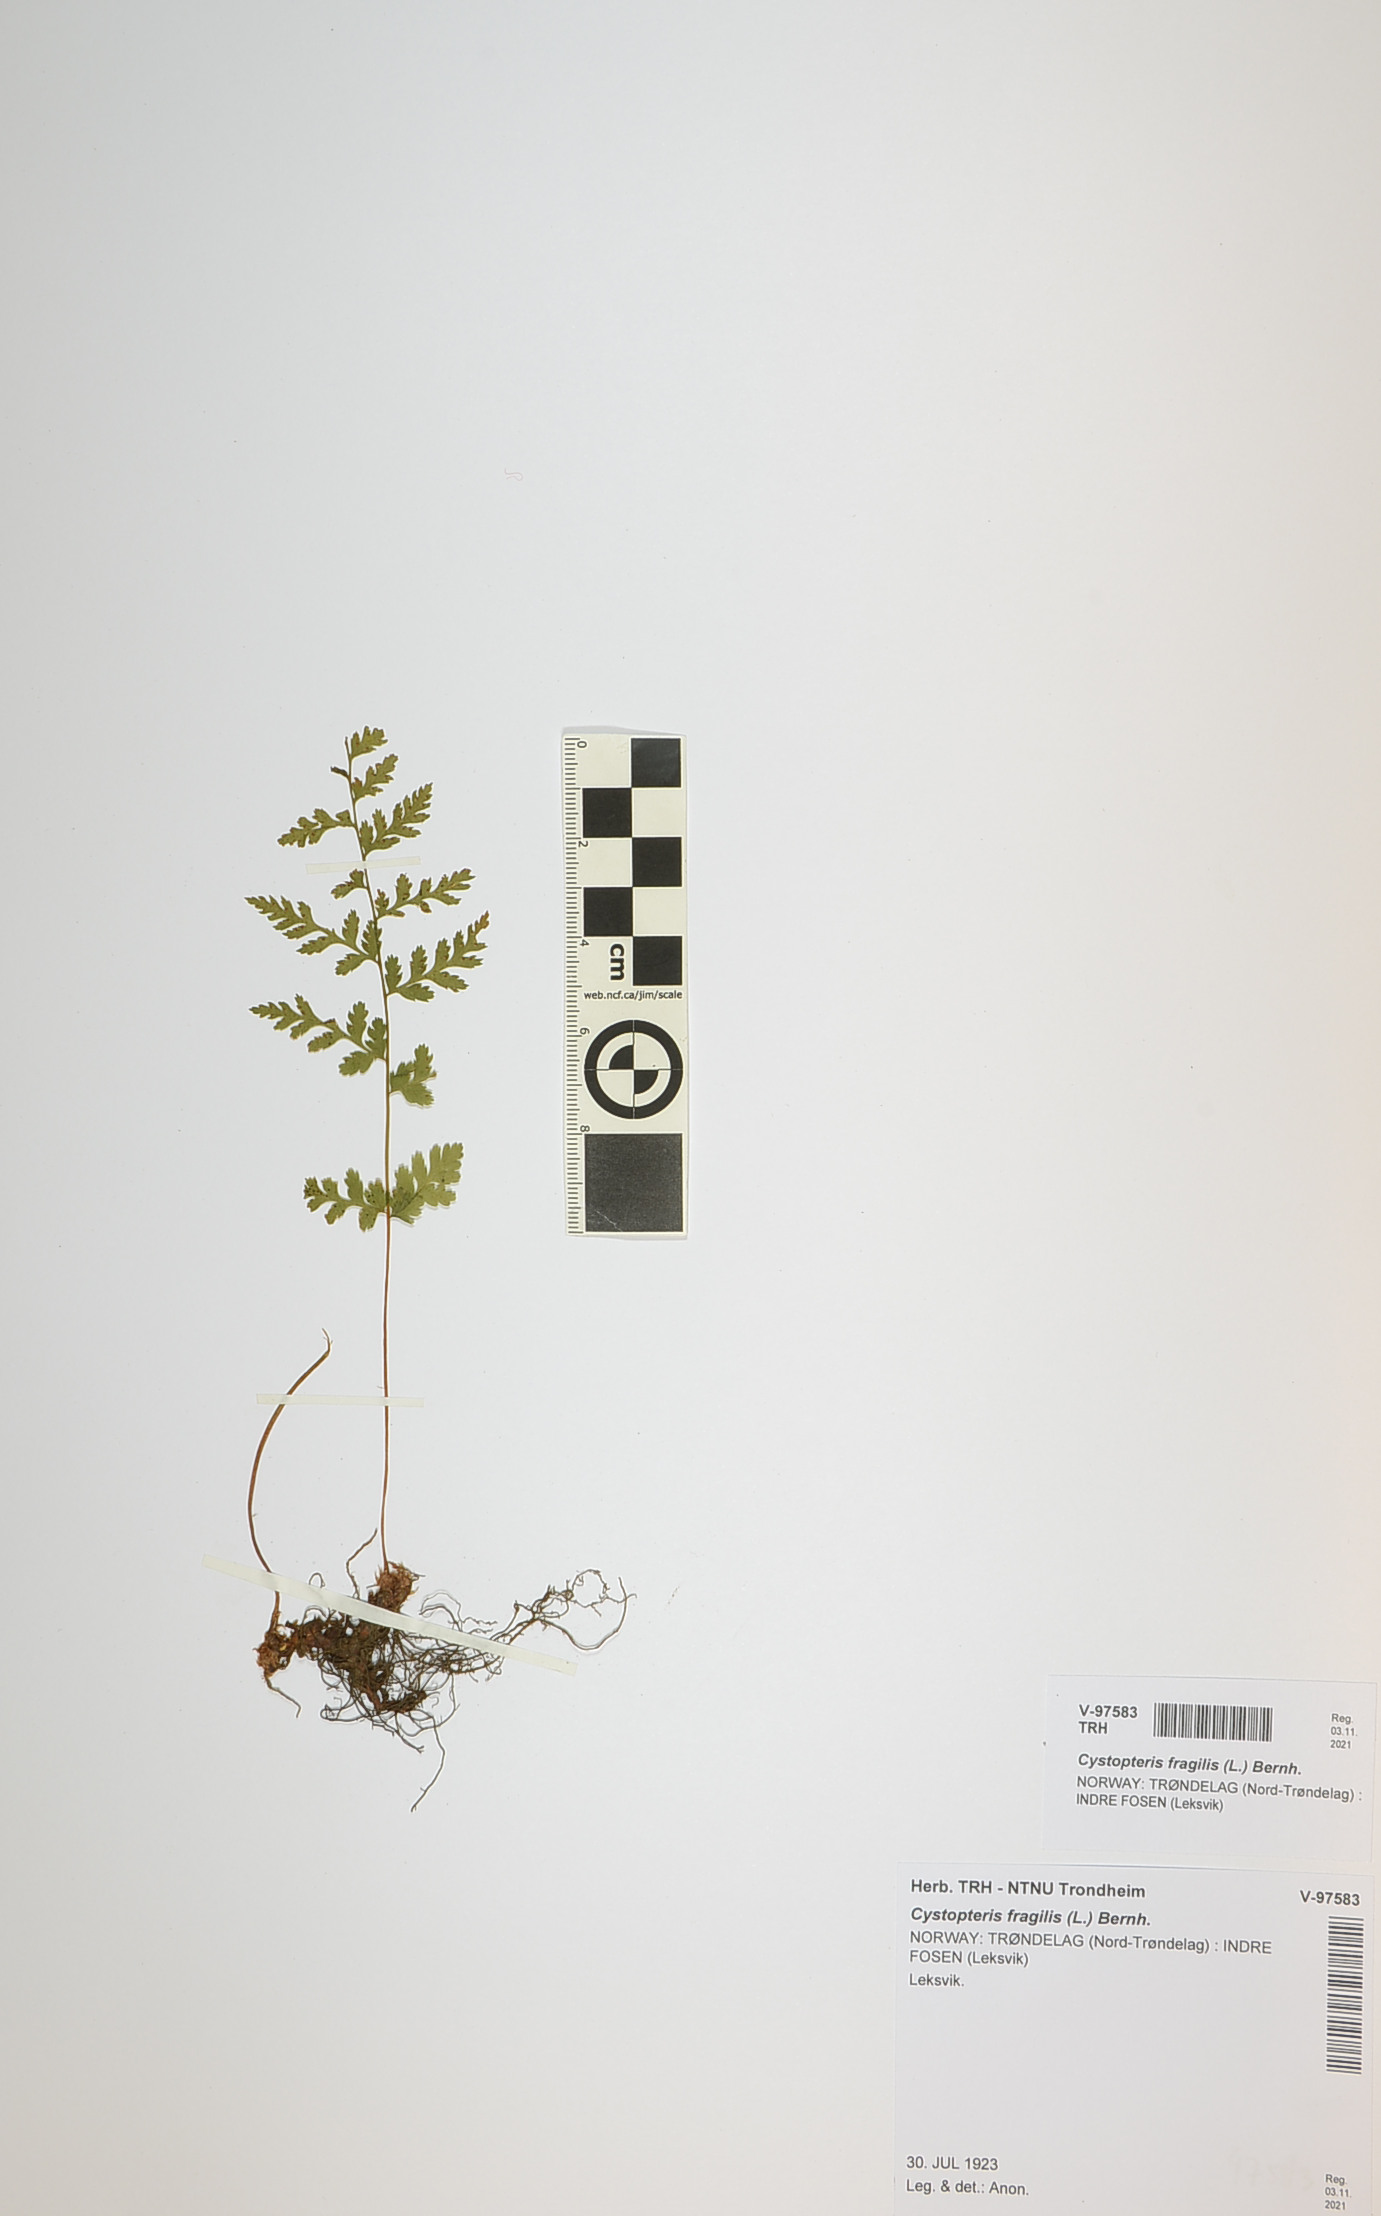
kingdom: Plantae
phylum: Tracheophyta
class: Polypodiopsida
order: Polypodiales
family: Cystopteridaceae
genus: Cystopteris
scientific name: Cystopteris fragilis
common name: Brittle bladder fern
